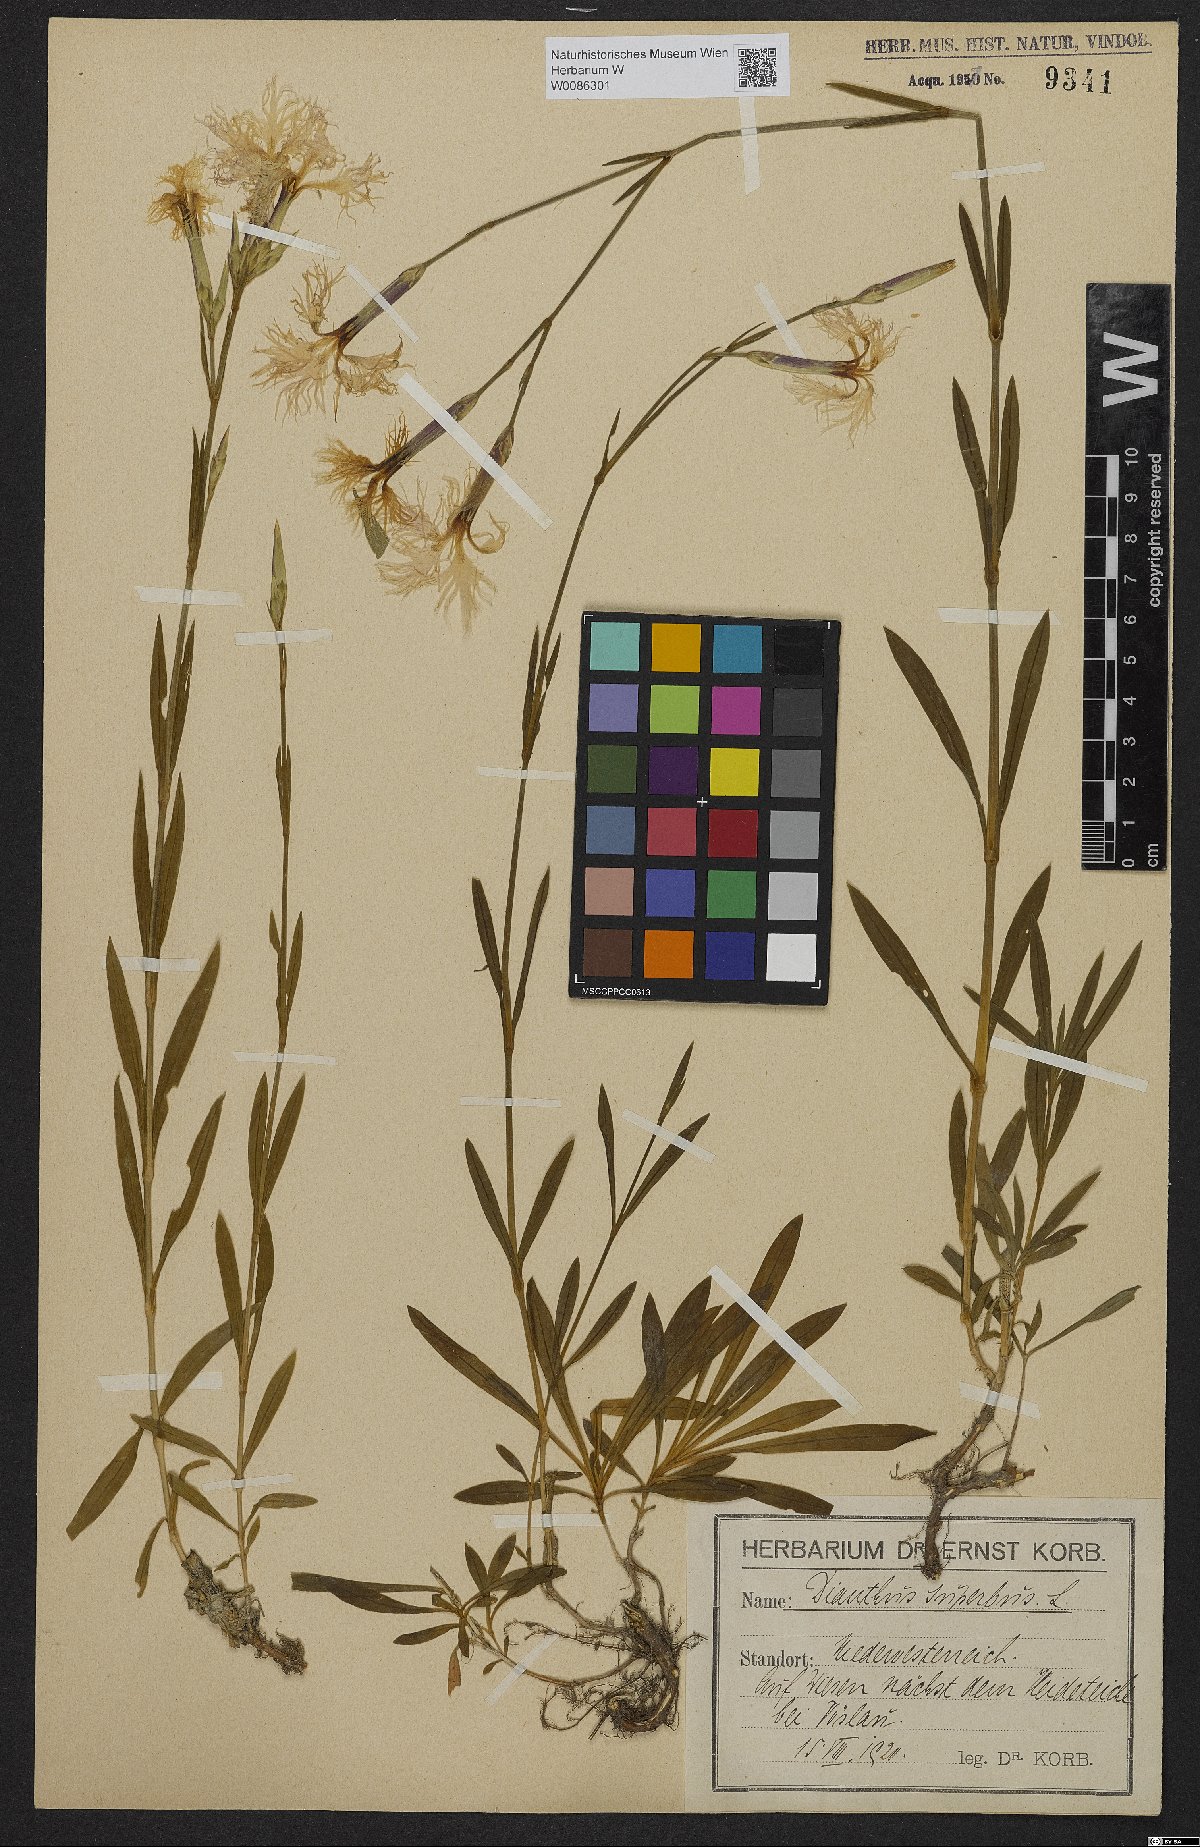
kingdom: Plantae
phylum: Tracheophyta
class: Magnoliopsida
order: Caryophyllales
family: Caryophyllaceae
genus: Dianthus
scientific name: Dianthus superbus
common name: Fringed pink
